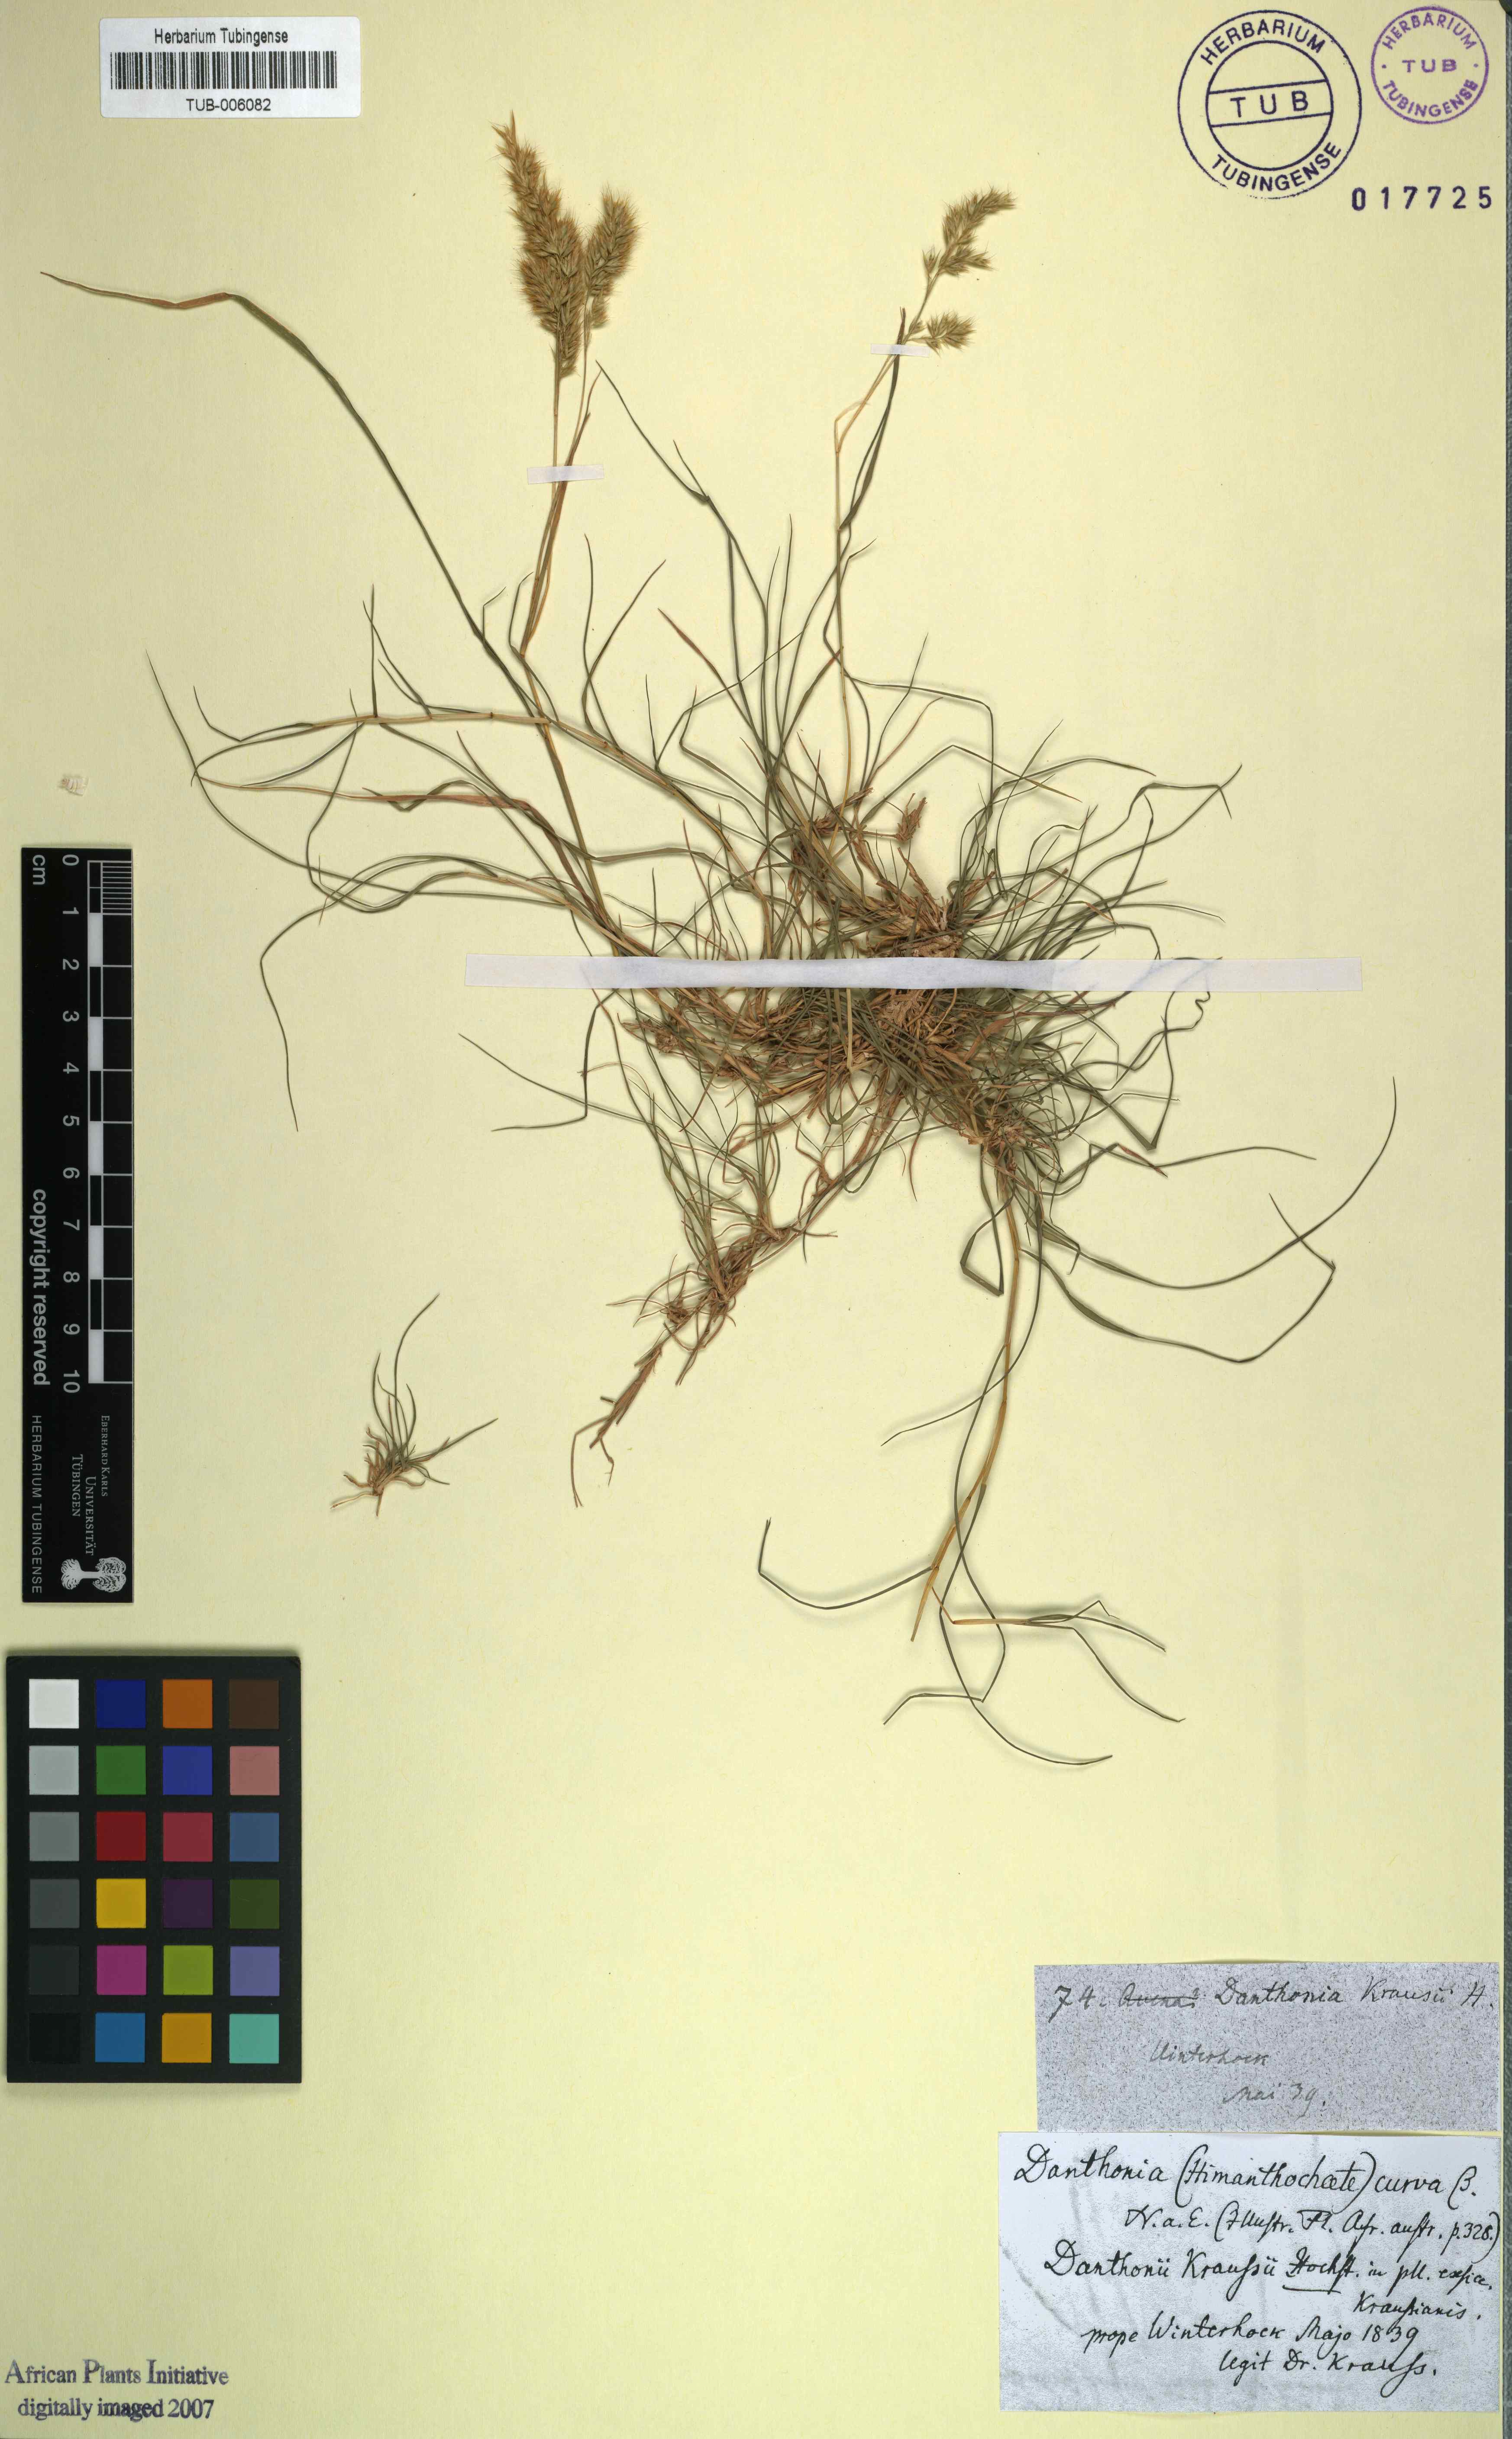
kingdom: Plantae
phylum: Tracheophyta
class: Liliopsida
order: Poales
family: Poaceae
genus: Tribolium
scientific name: Tribolium curvum
